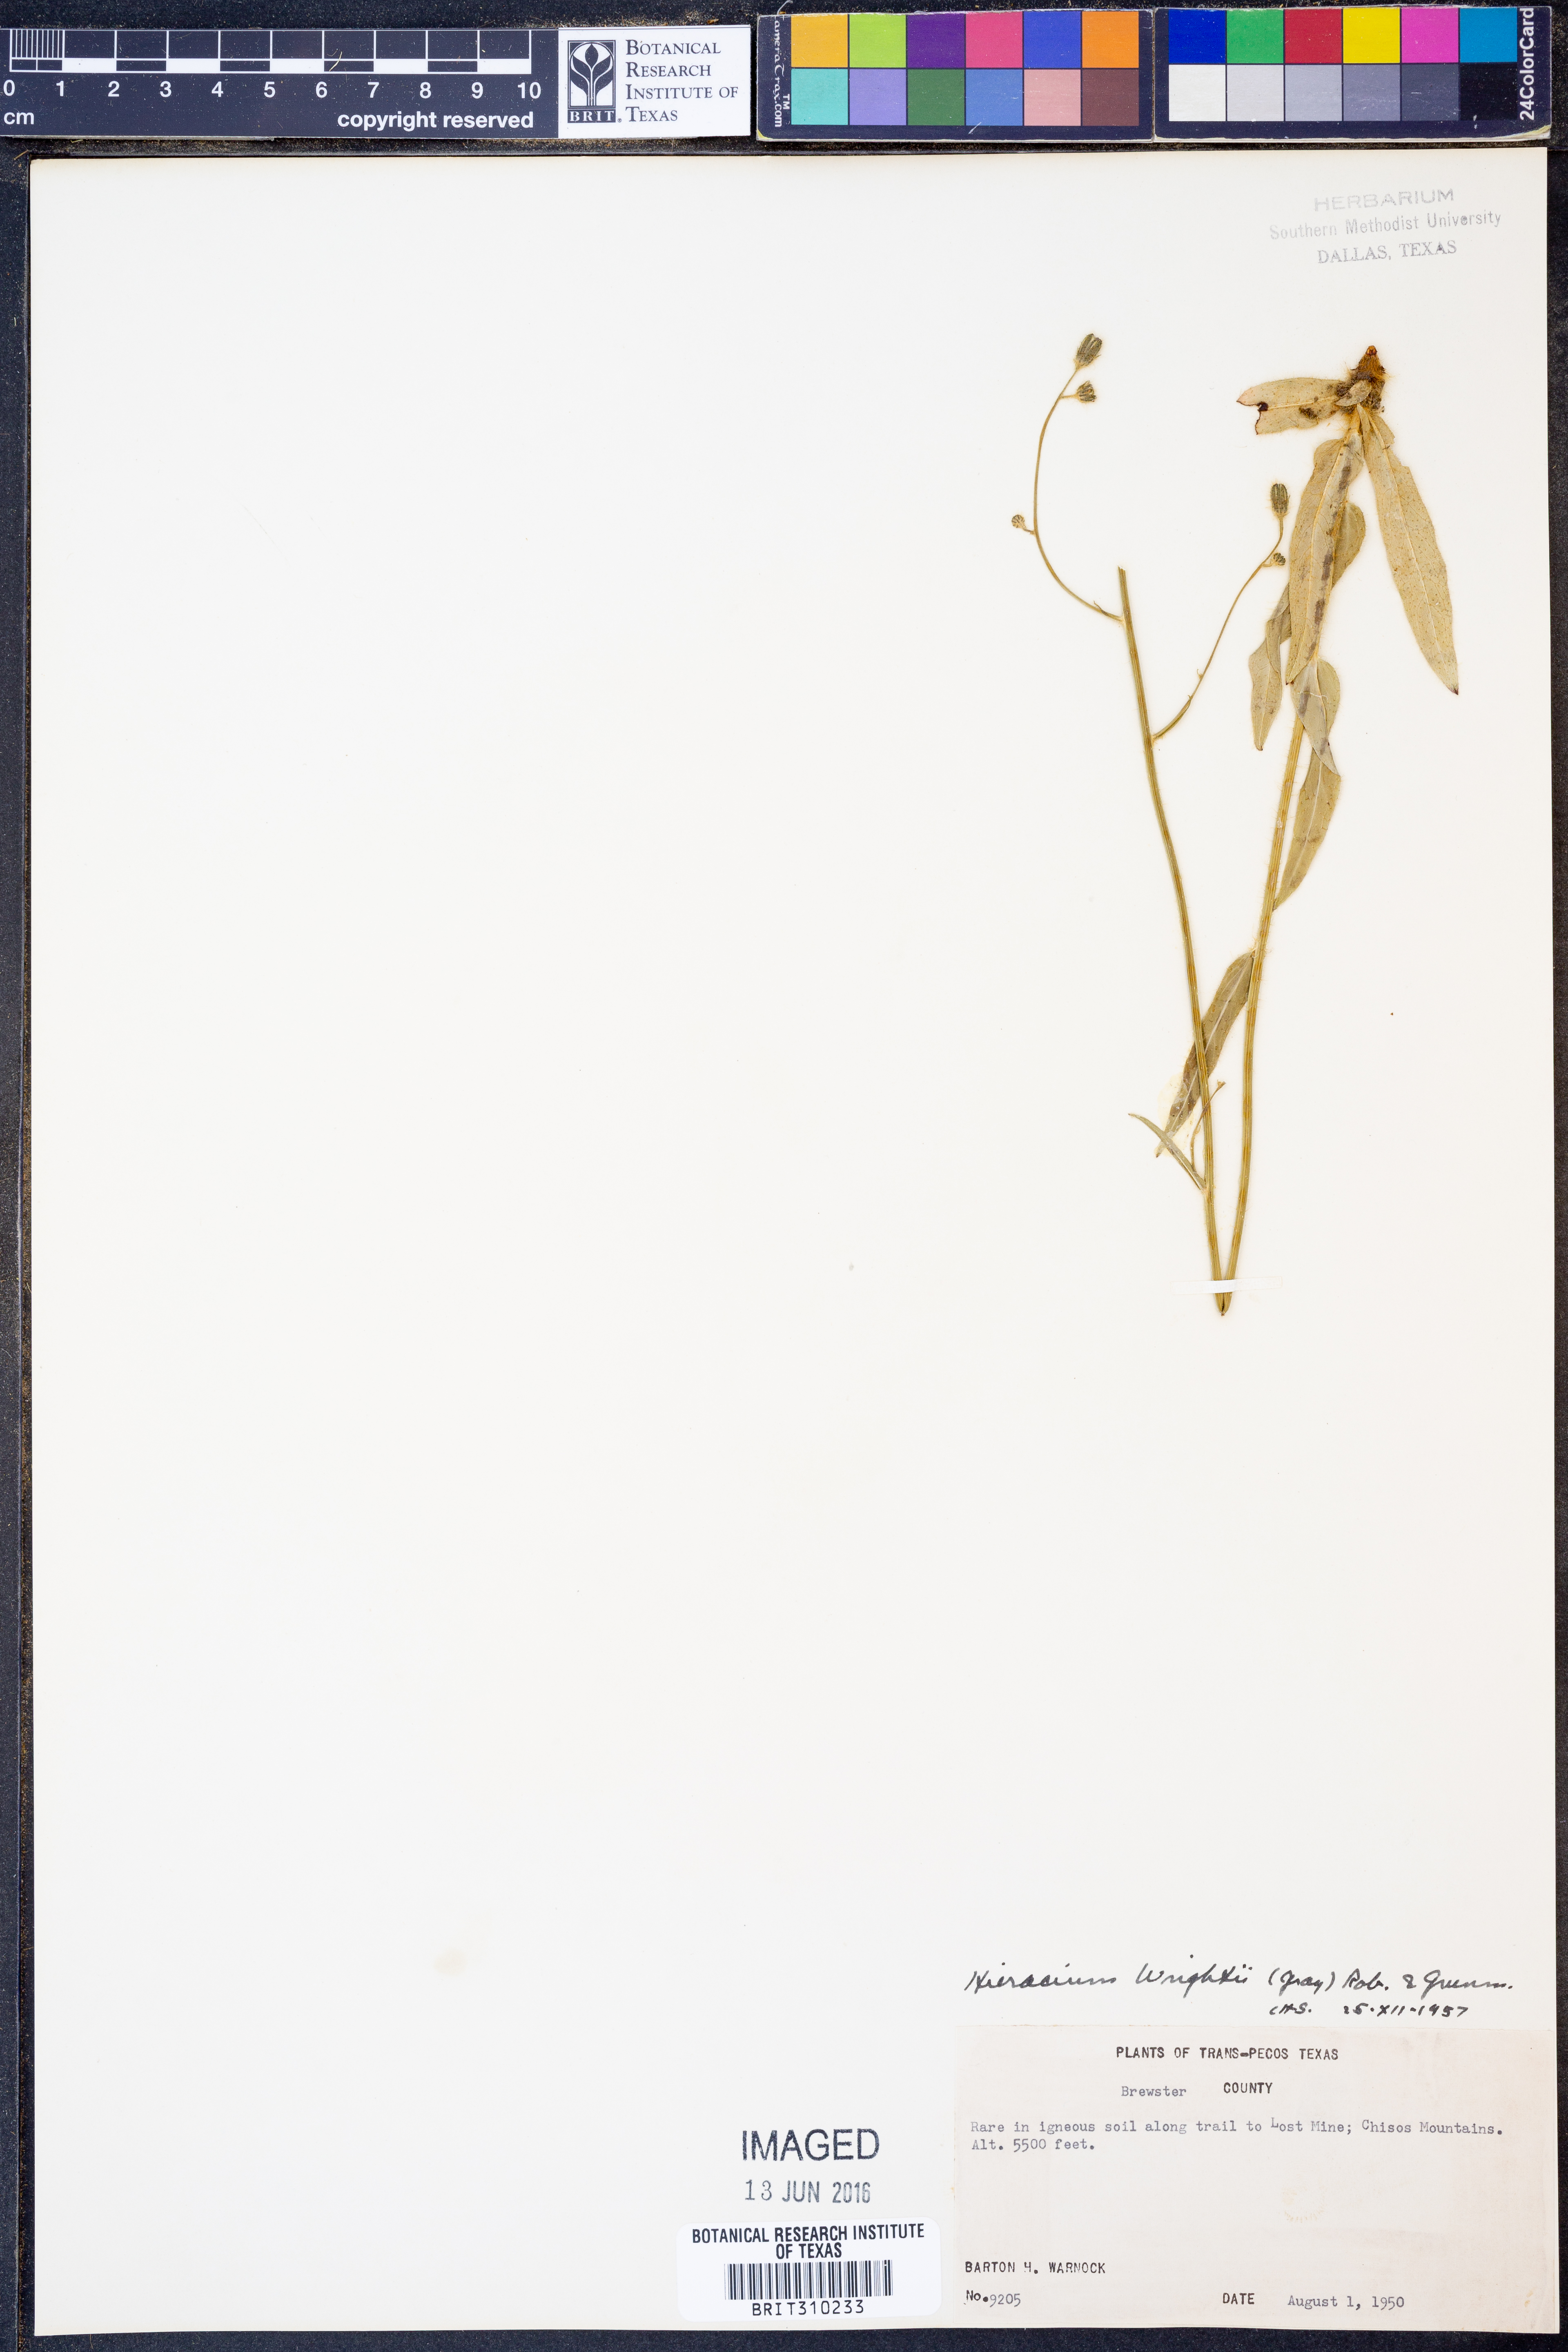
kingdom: Plantae
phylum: Tracheophyta
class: Magnoliopsida
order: Asterales
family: Asteraceae
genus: Hieracium
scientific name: Hieracium friesii
